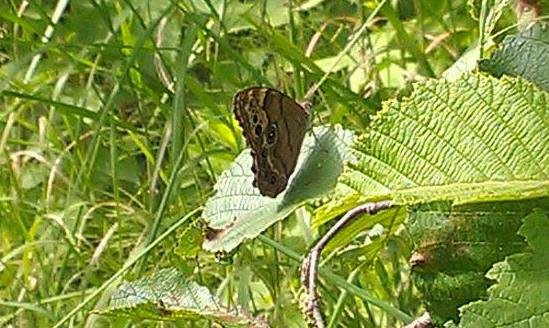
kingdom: Animalia
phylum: Arthropoda
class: Insecta
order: Lepidoptera
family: Nymphalidae
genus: Lethe
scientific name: Lethe anthedon
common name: Northern Pearly-Eye
